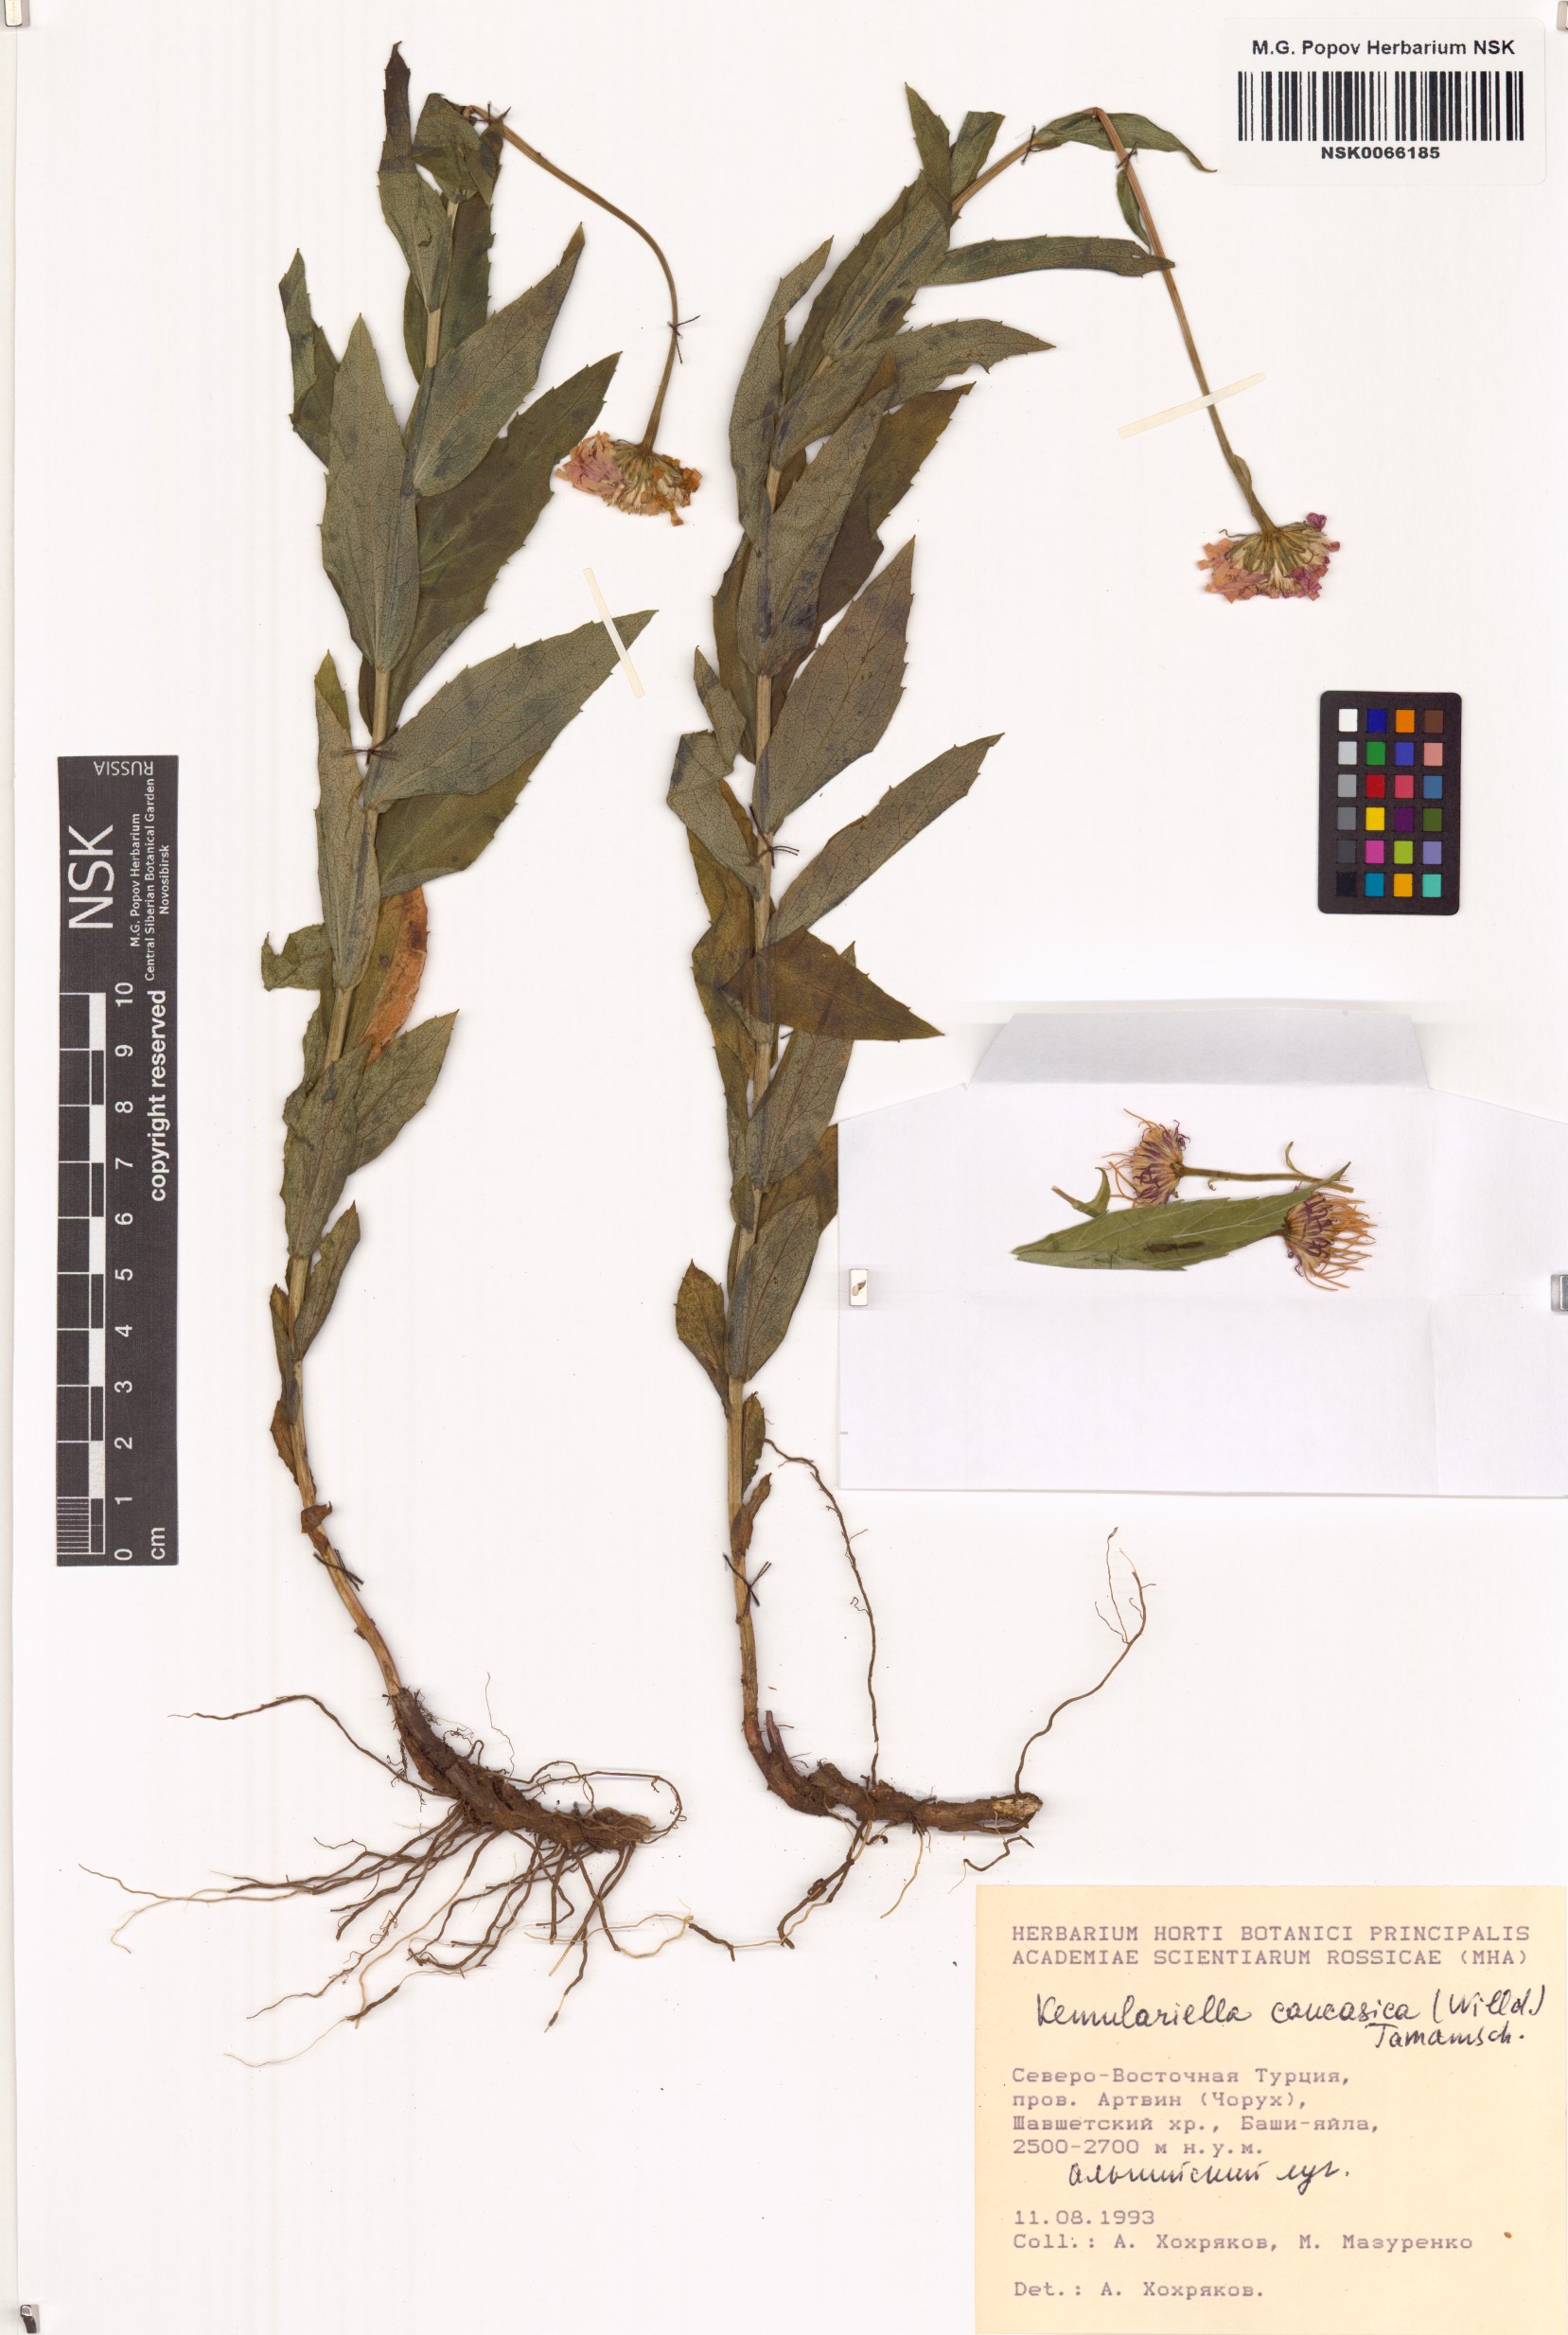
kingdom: Plantae
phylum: Tracheophyta
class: Magnoliopsida
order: Asterales
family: Asteraceae
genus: Kemulariella
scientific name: Kemulariella caucasica
